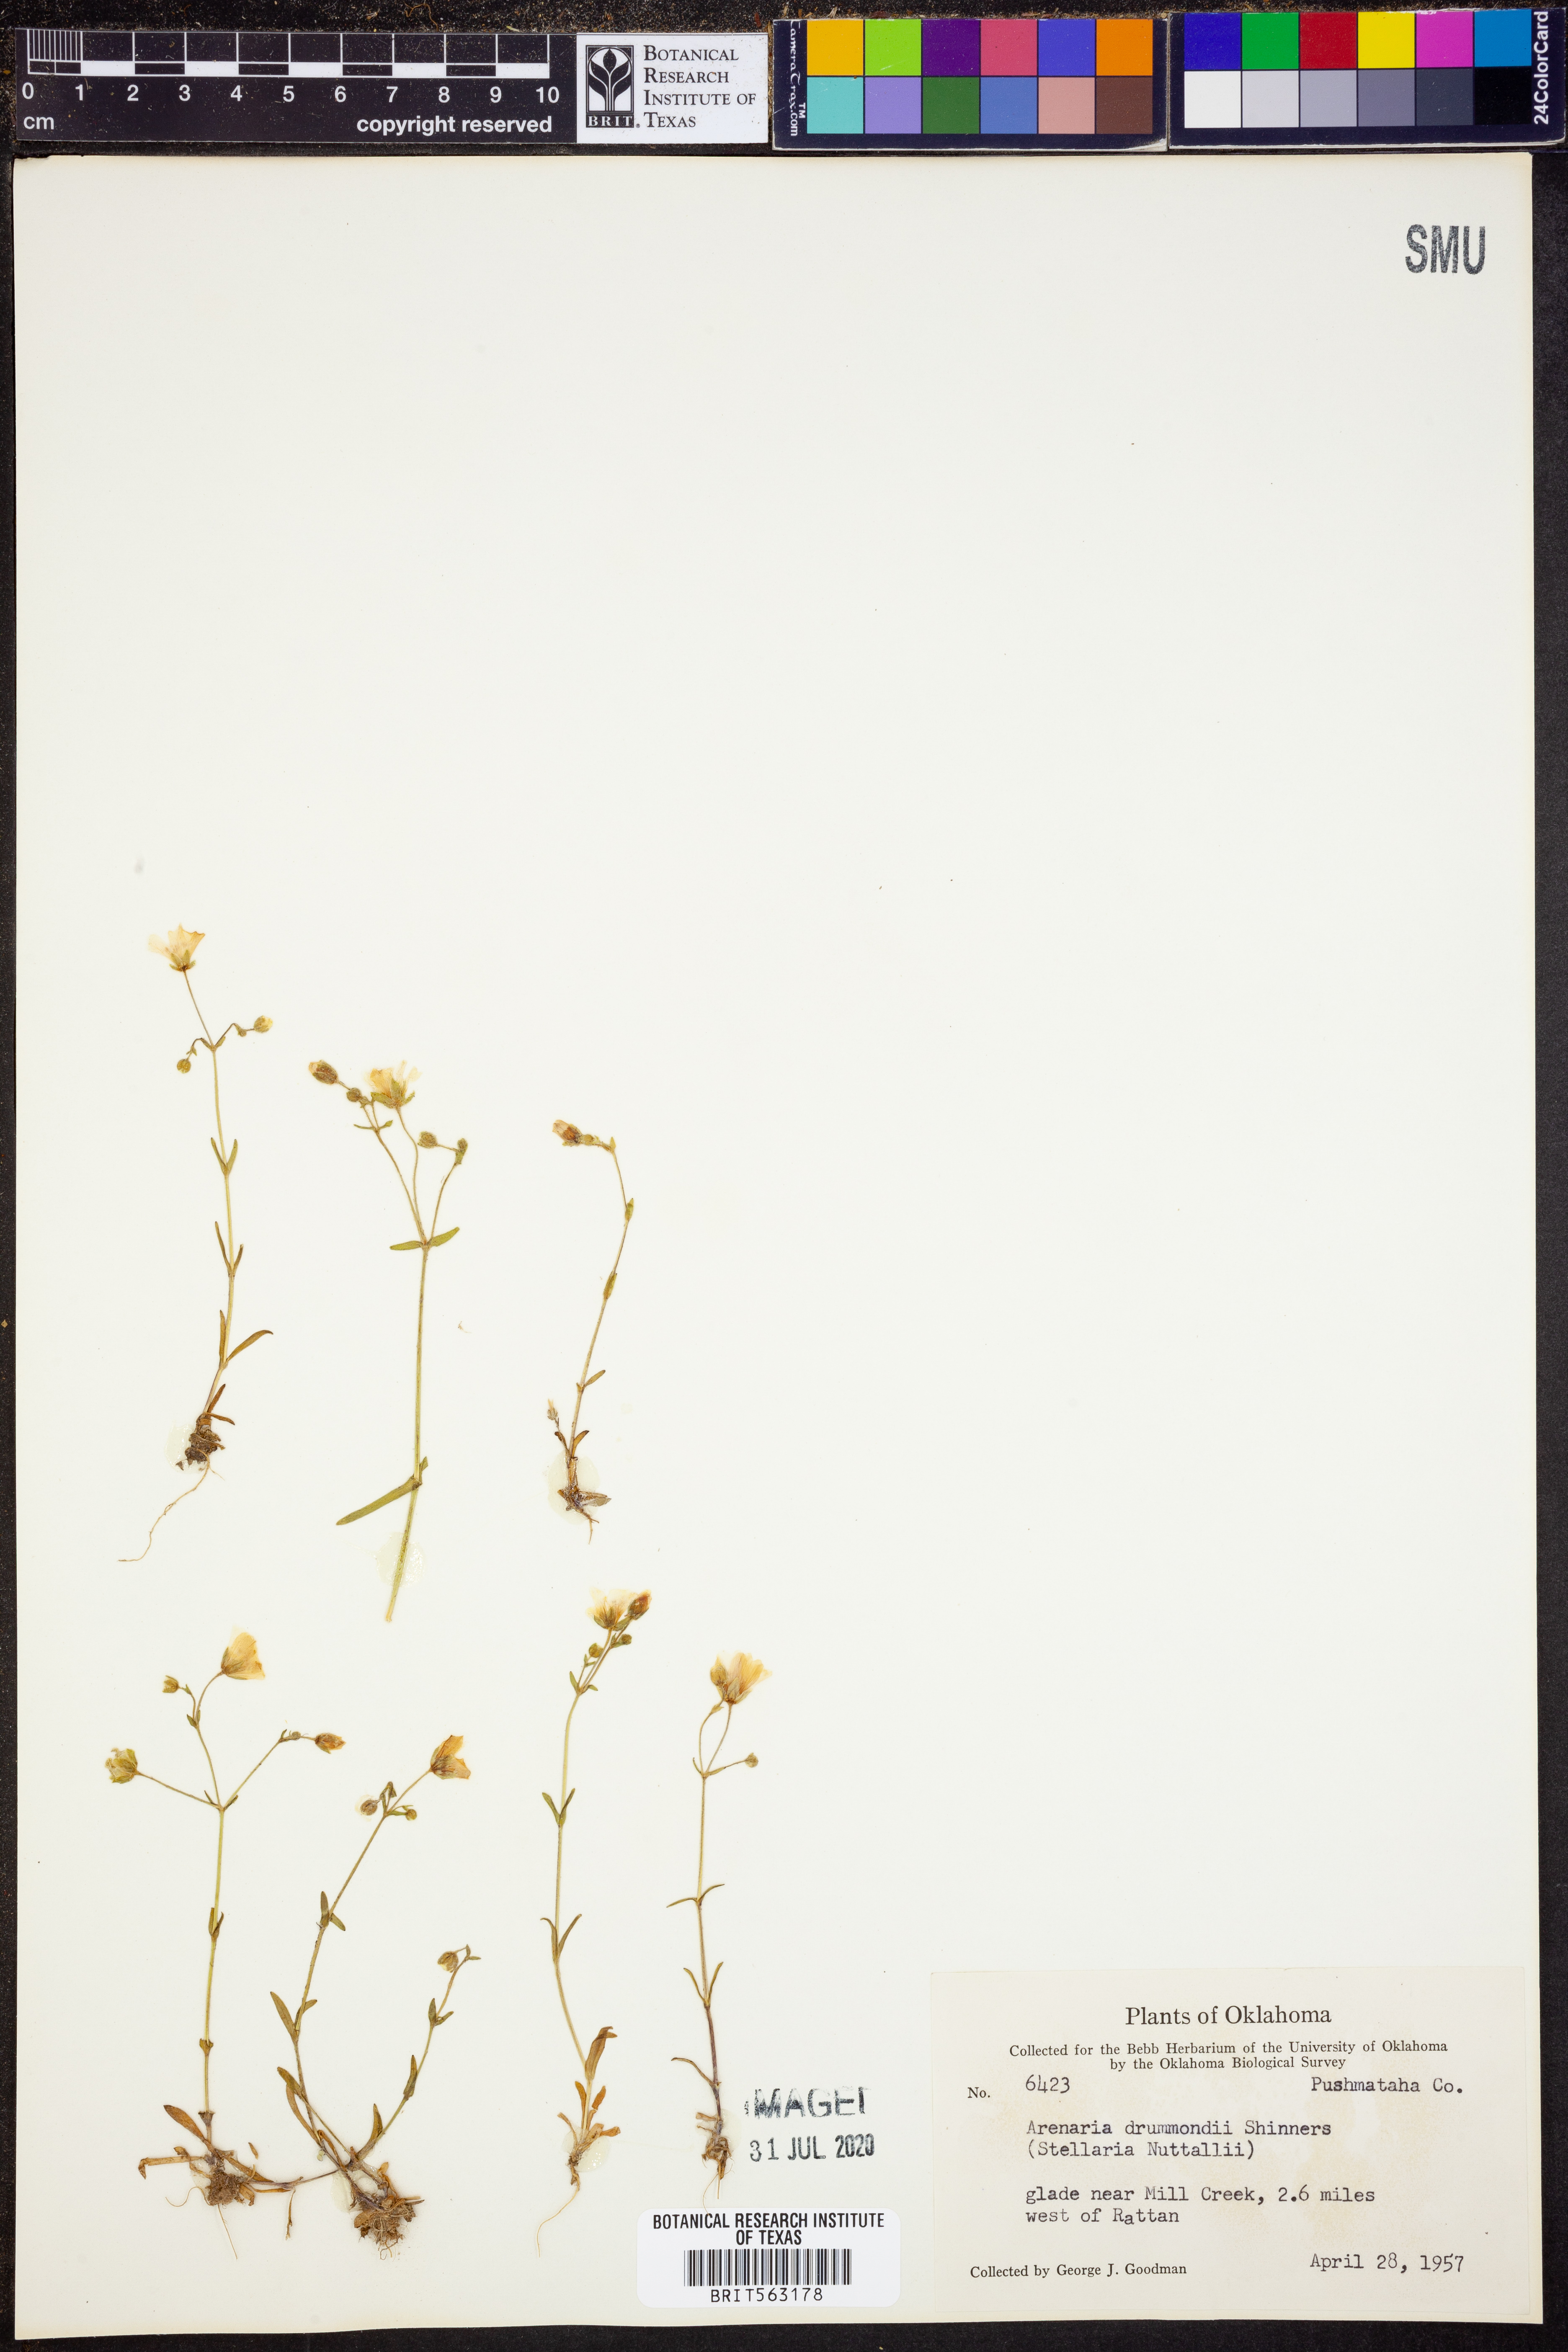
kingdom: Plantae
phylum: Tracheophyta
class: Magnoliopsida
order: Caryophyllales
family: Caryophyllaceae
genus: Geocarpon
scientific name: Geocarpon nuttallii
